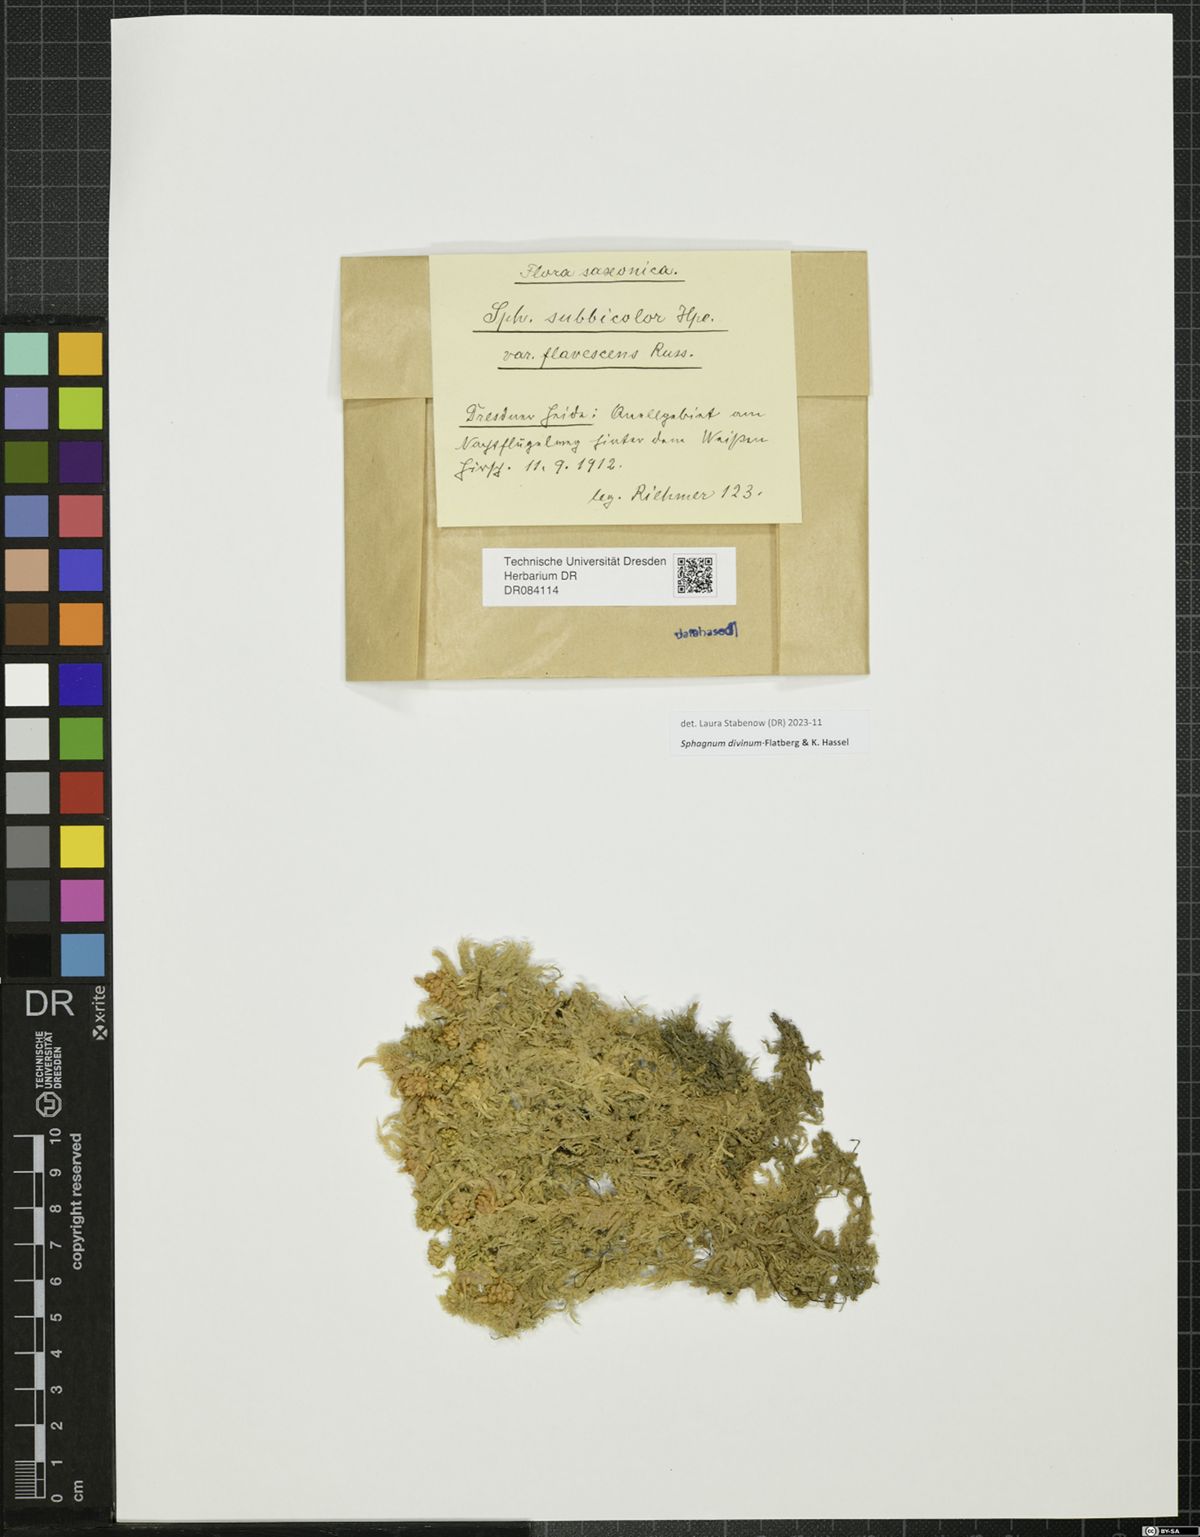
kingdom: Plantae
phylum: Bryophyta
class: Sphagnopsida
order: Sphagnales
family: Sphagnaceae
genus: Sphagnum
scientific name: Sphagnum divinum
